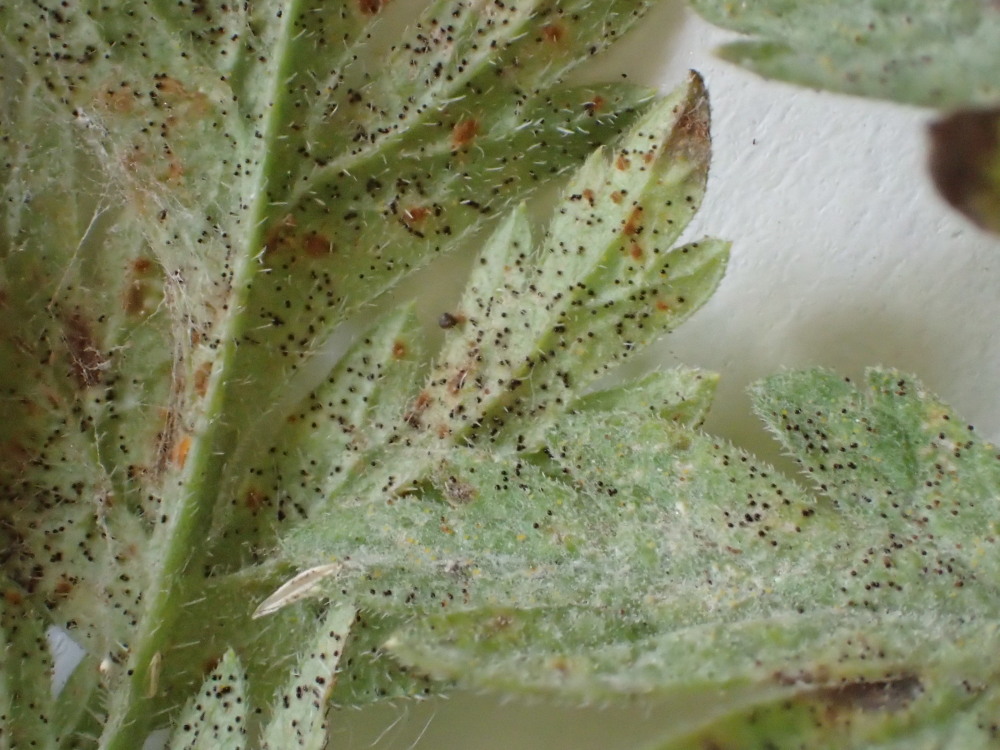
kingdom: Fungi
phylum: Ascomycota
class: Leotiomycetes
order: Helotiales
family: Erysiphaceae
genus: Erysiphe
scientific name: Erysiphe heraclei
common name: skærmplante-meldug
